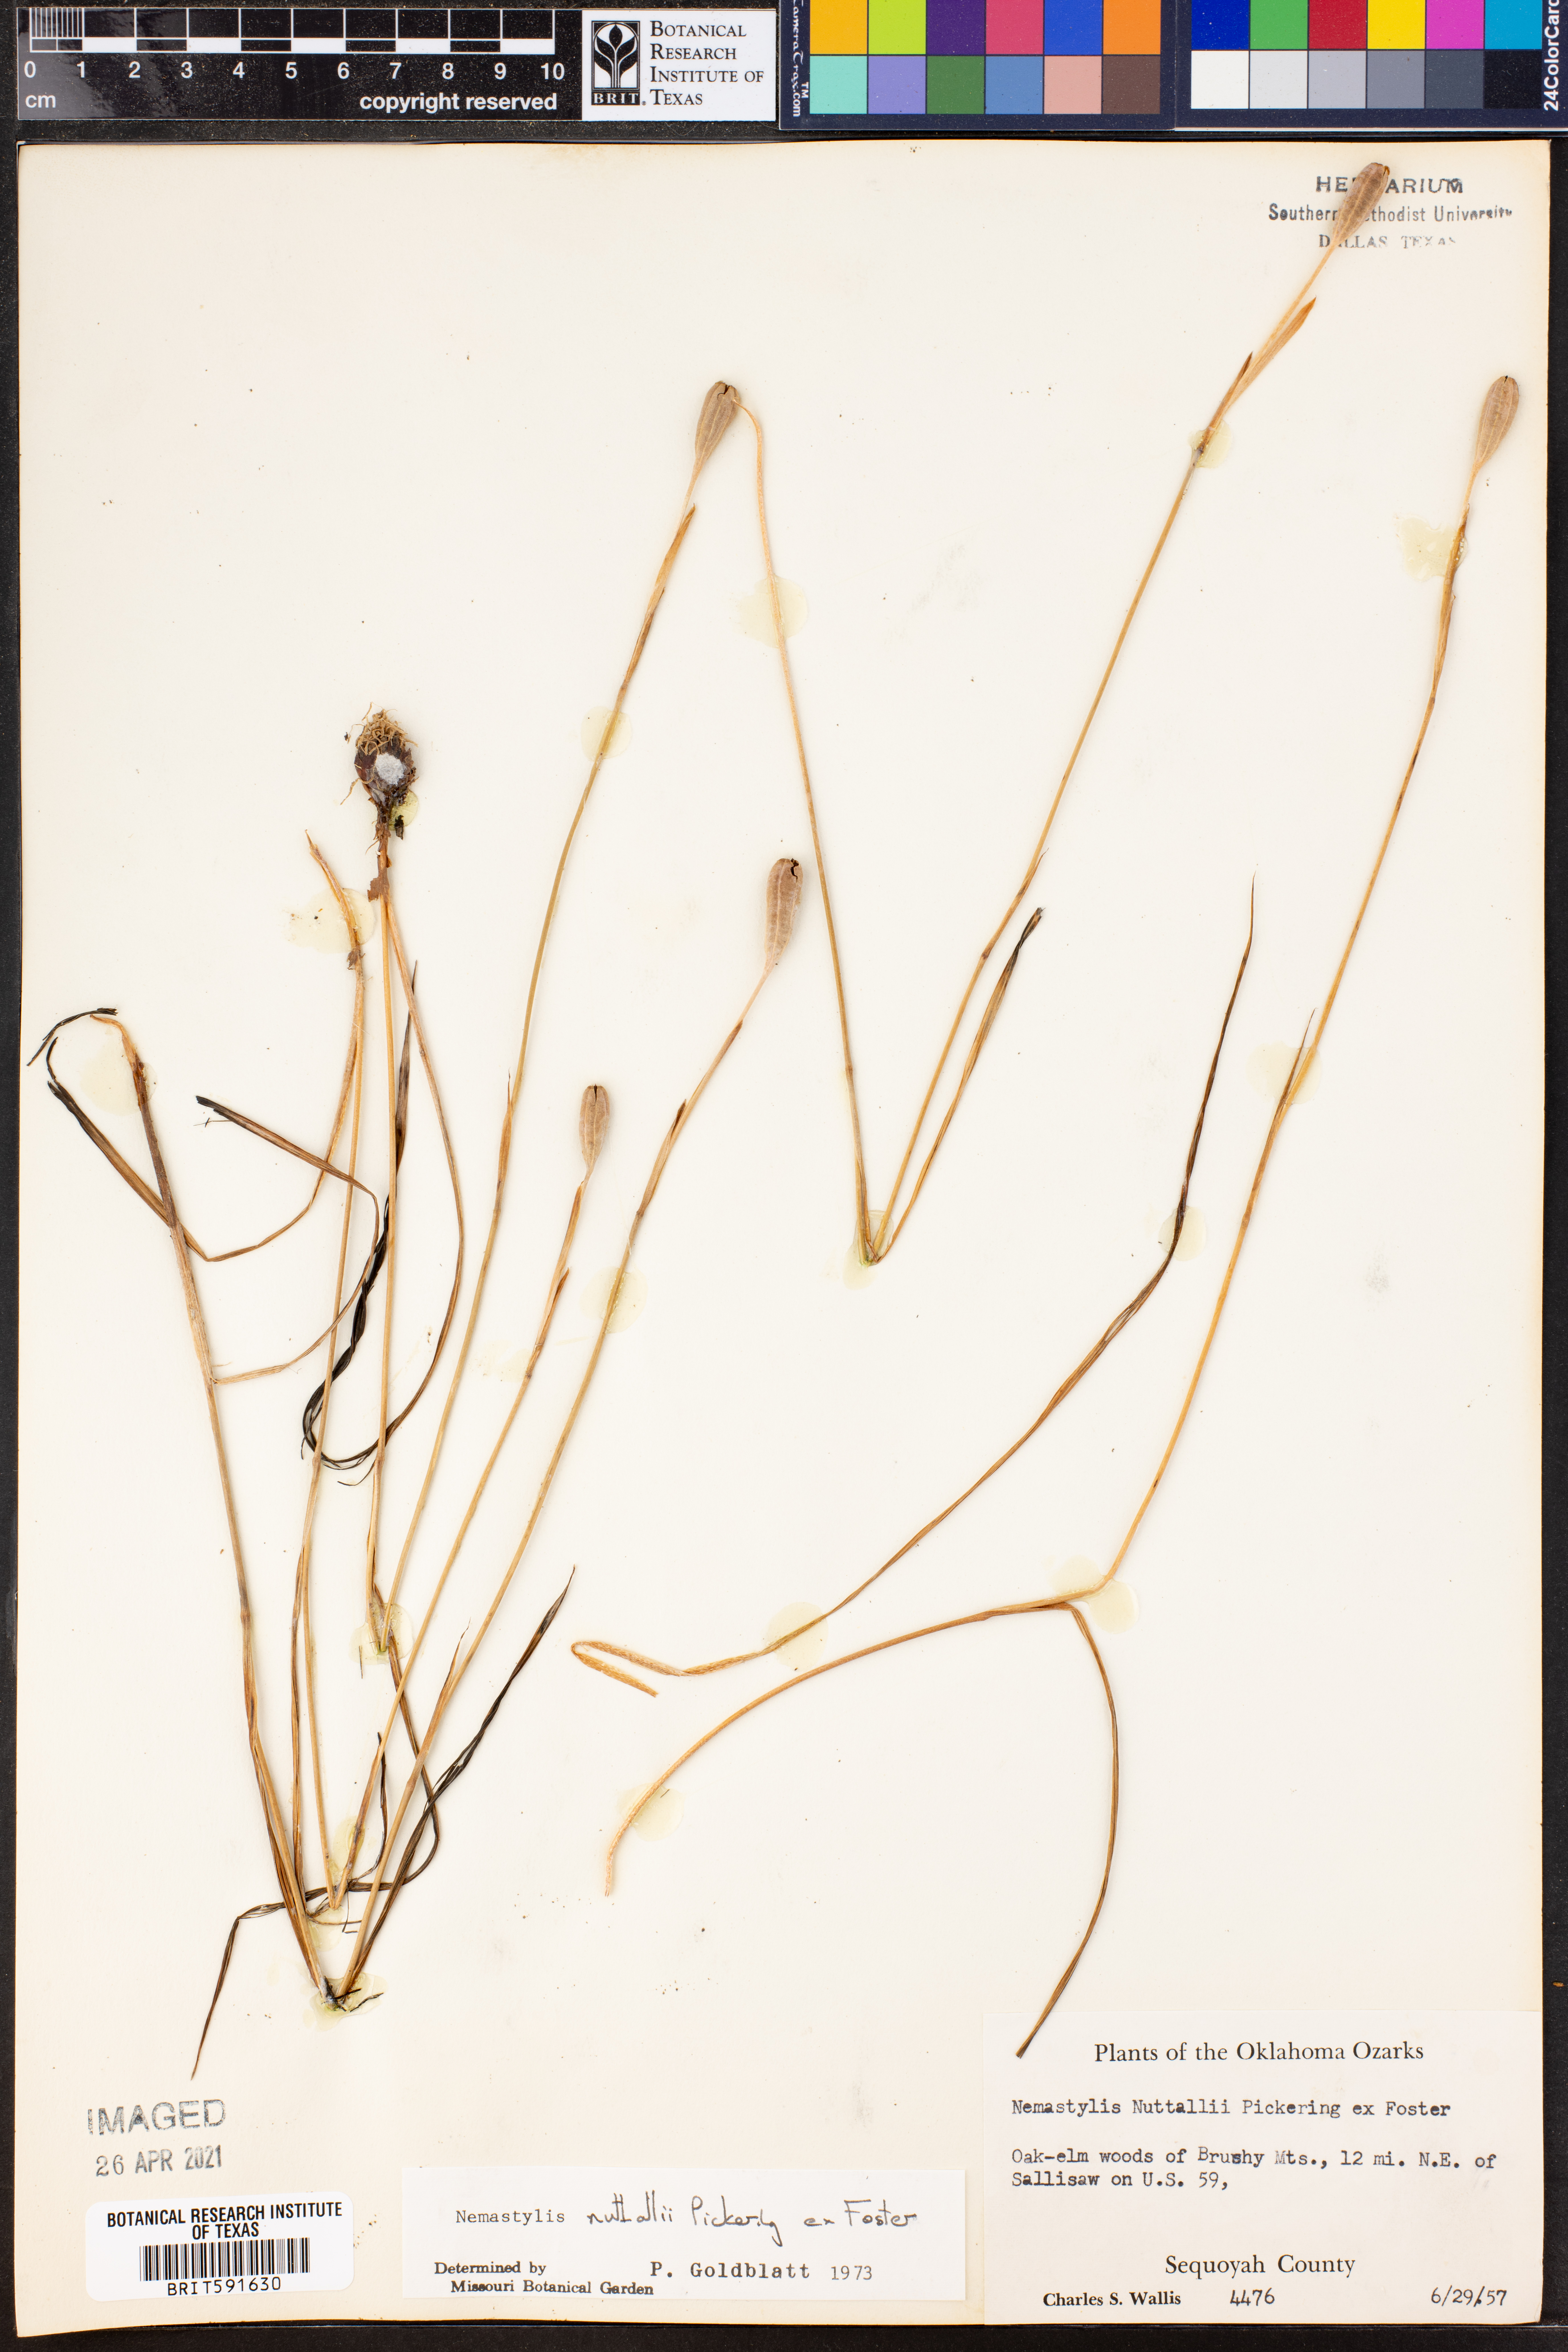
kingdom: Plantae
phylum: Tracheophyta
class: Liliopsida
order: Asparagales
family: Iridaceae
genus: Nemastylis
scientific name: Nemastylis nuttallii
